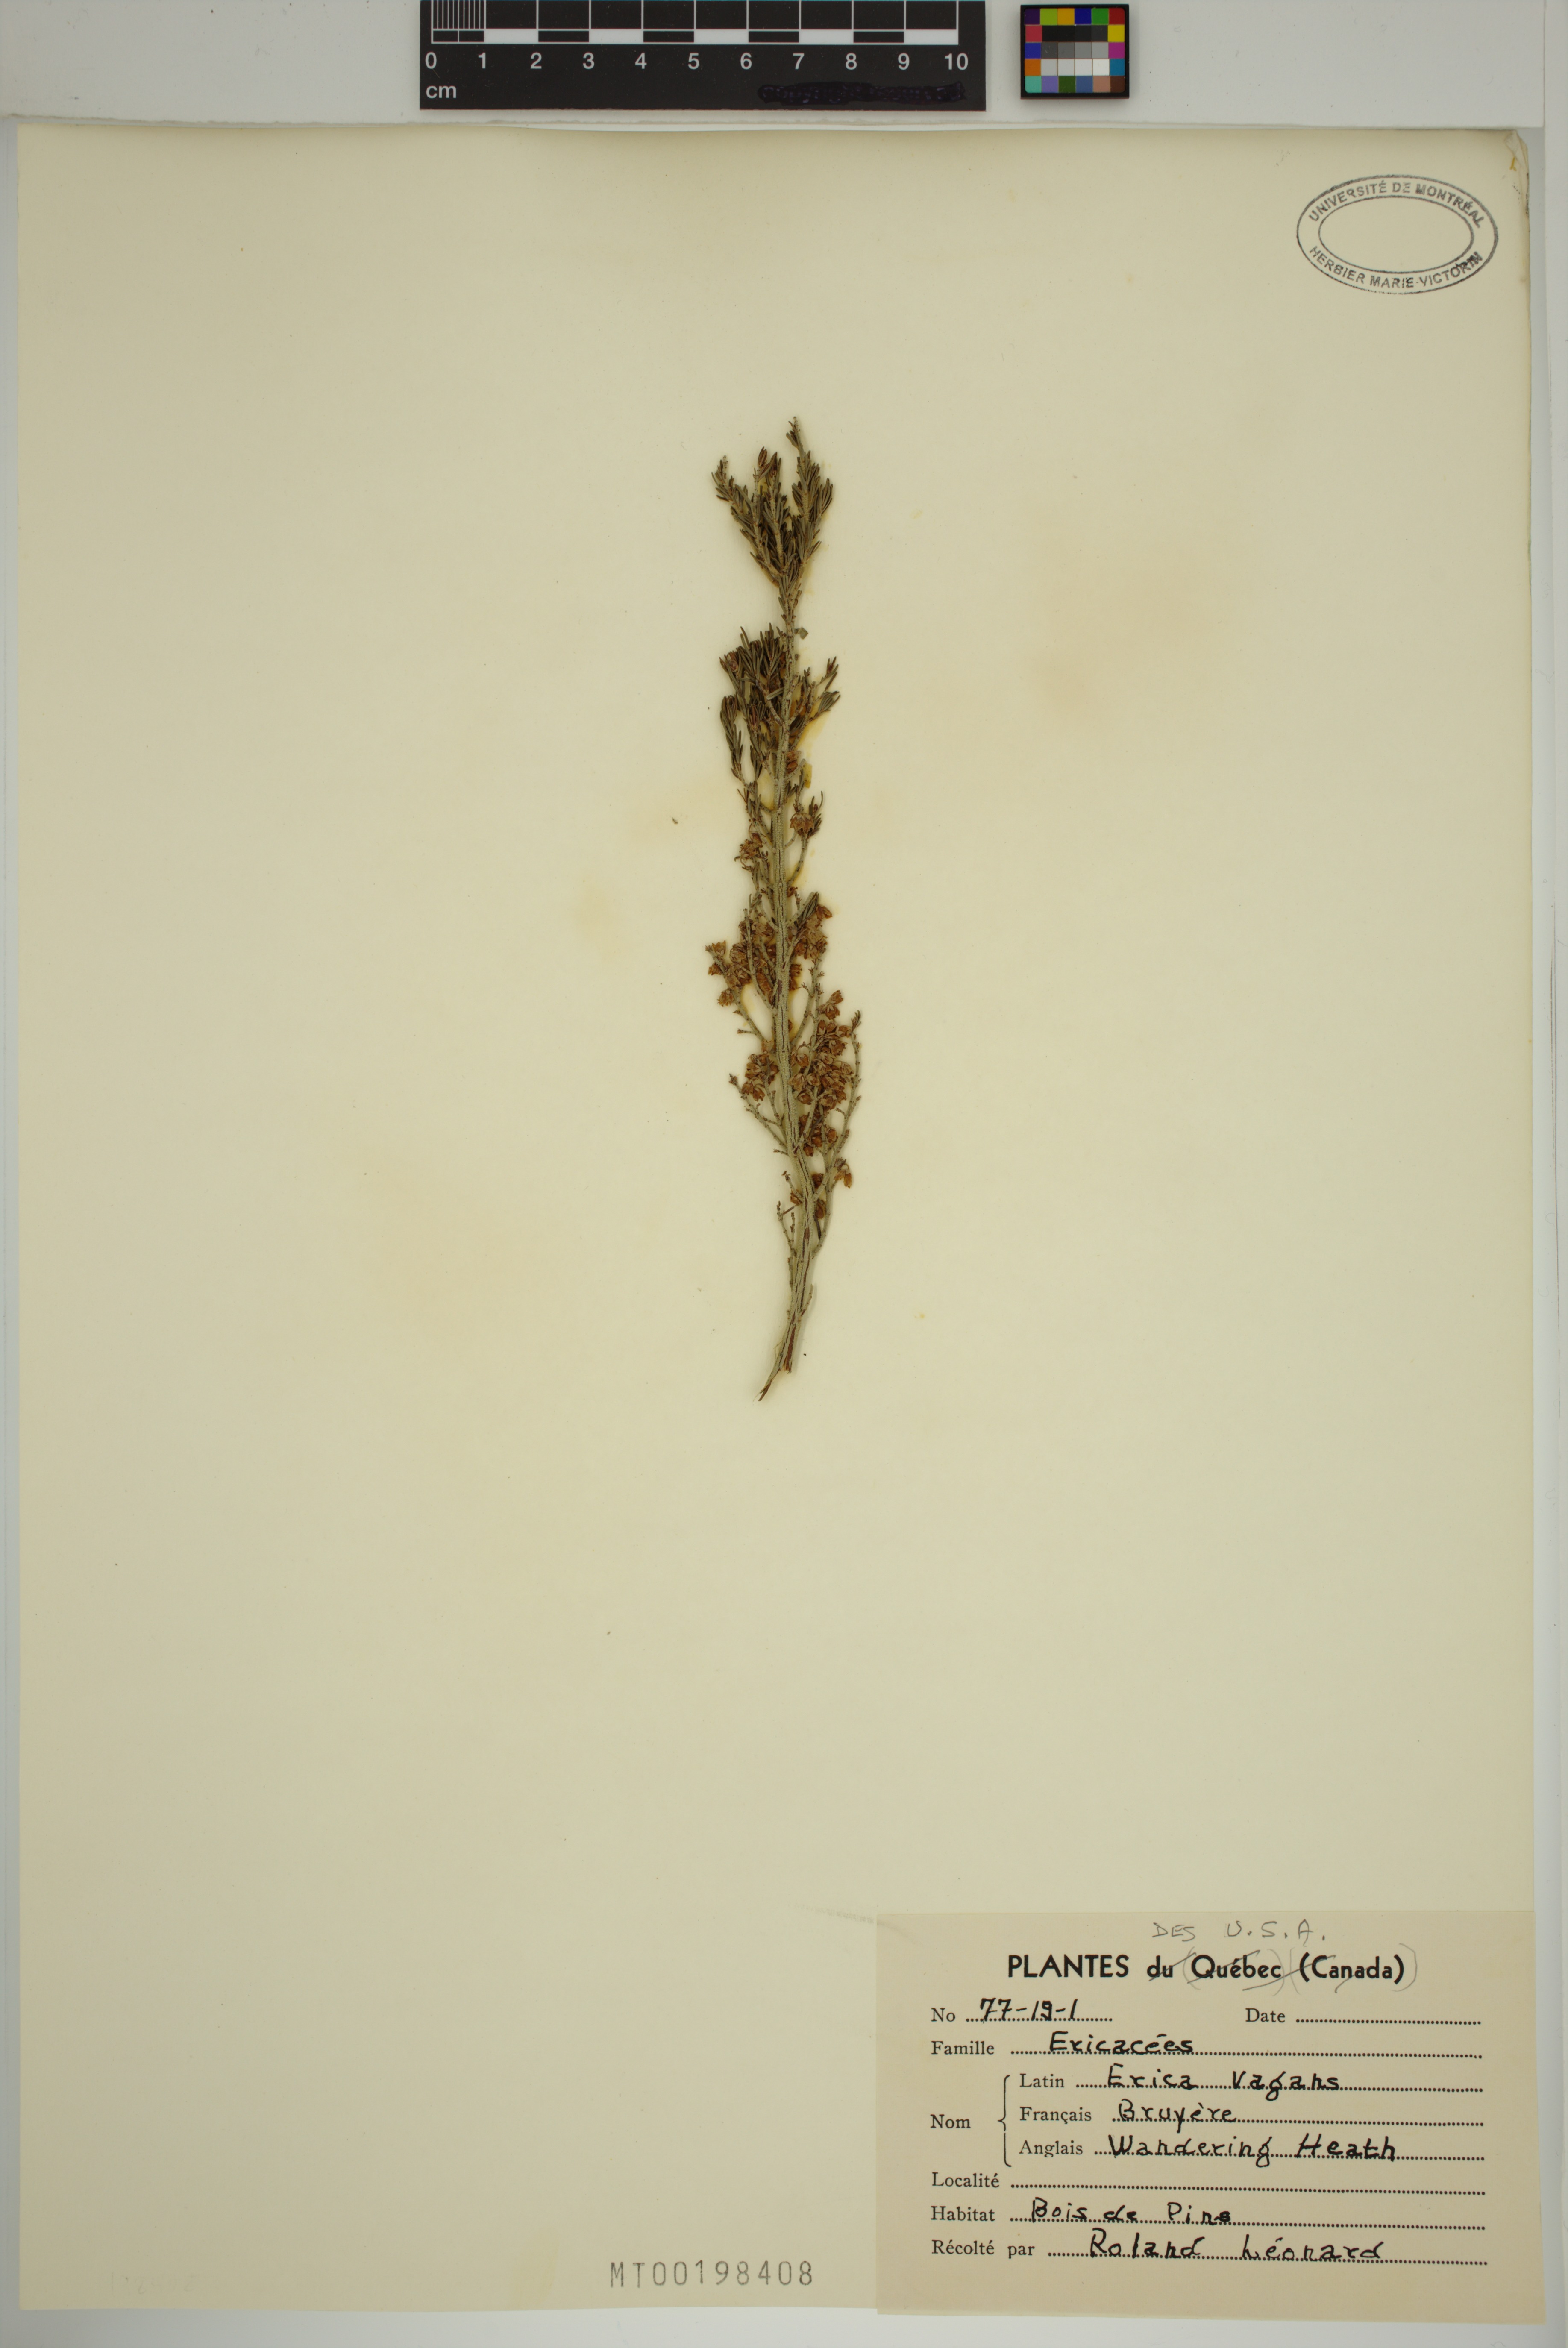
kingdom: Plantae
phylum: Tracheophyta
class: Magnoliopsida
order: Ericales
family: Ericaceae
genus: Erica
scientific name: Erica vagans
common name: Cornish heath
